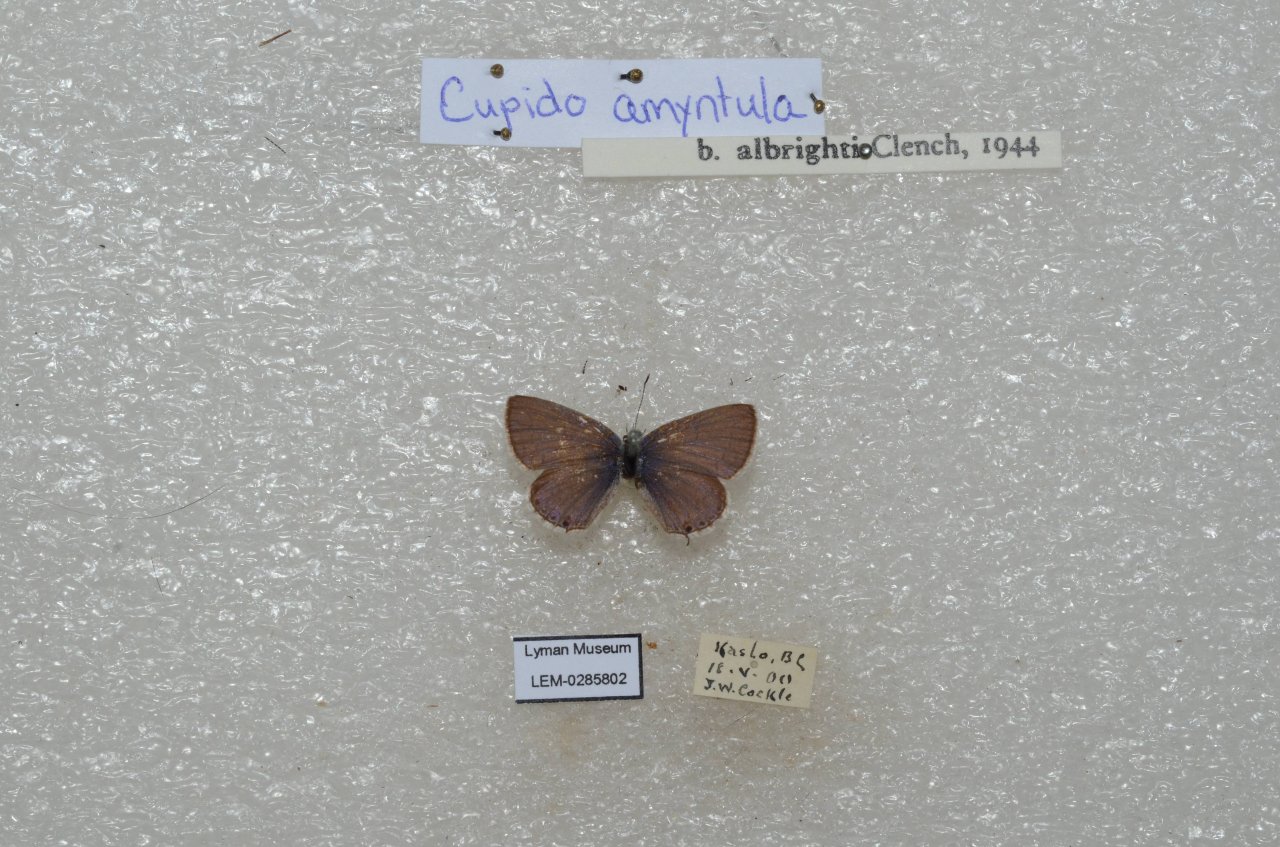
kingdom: Animalia
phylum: Arthropoda
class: Insecta
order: Lepidoptera
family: Lycaenidae
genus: Elkalyce
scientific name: Elkalyce amyntula
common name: Western Tailed-Blue
